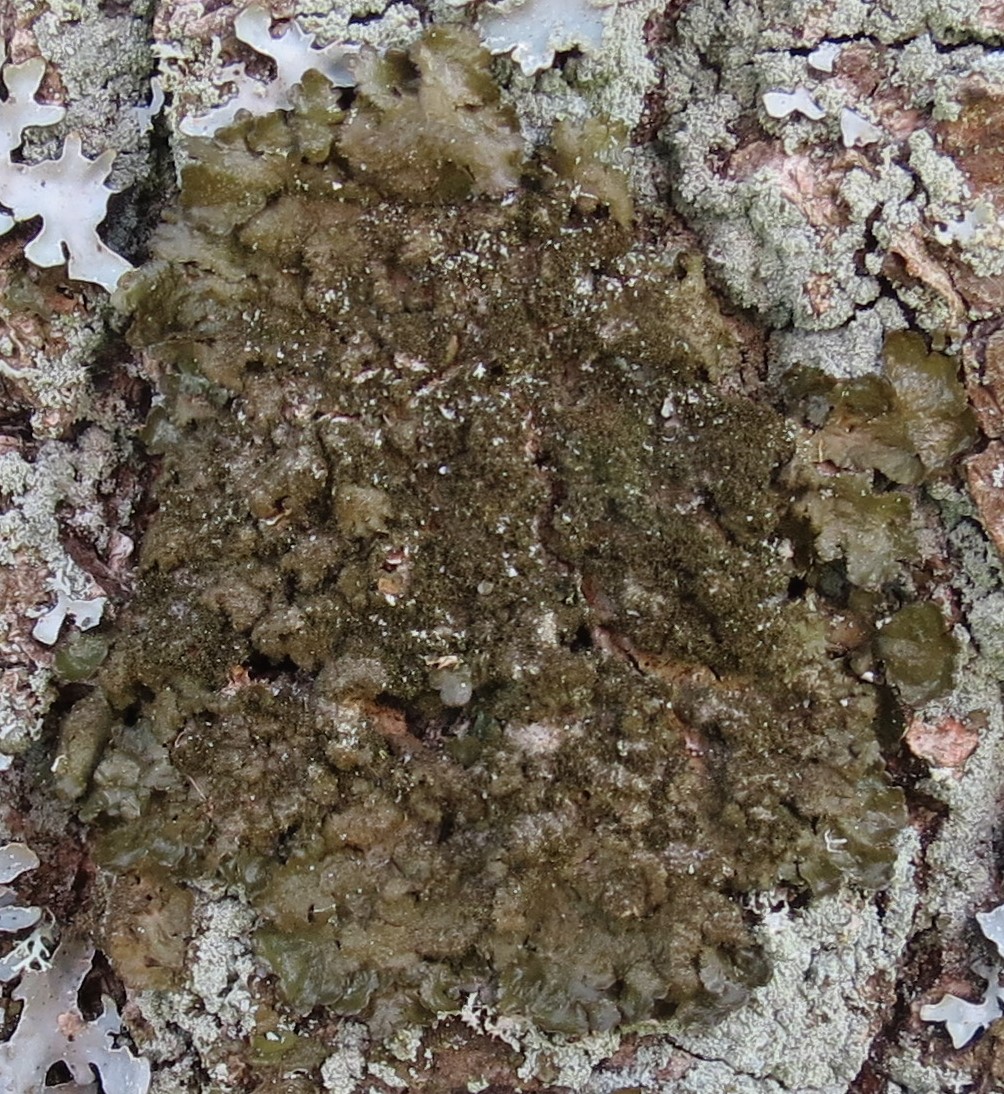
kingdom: Fungi
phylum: Ascomycota
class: Lecanoromycetes
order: Lecanorales
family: Parmeliaceae
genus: Melanelixia
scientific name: Melanelixia glabratula
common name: glinsende skållav
